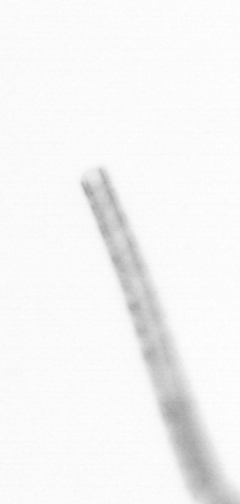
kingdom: Chromista
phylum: Ochrophyta
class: Bacillariophyceae
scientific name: Bacillariophyceae
